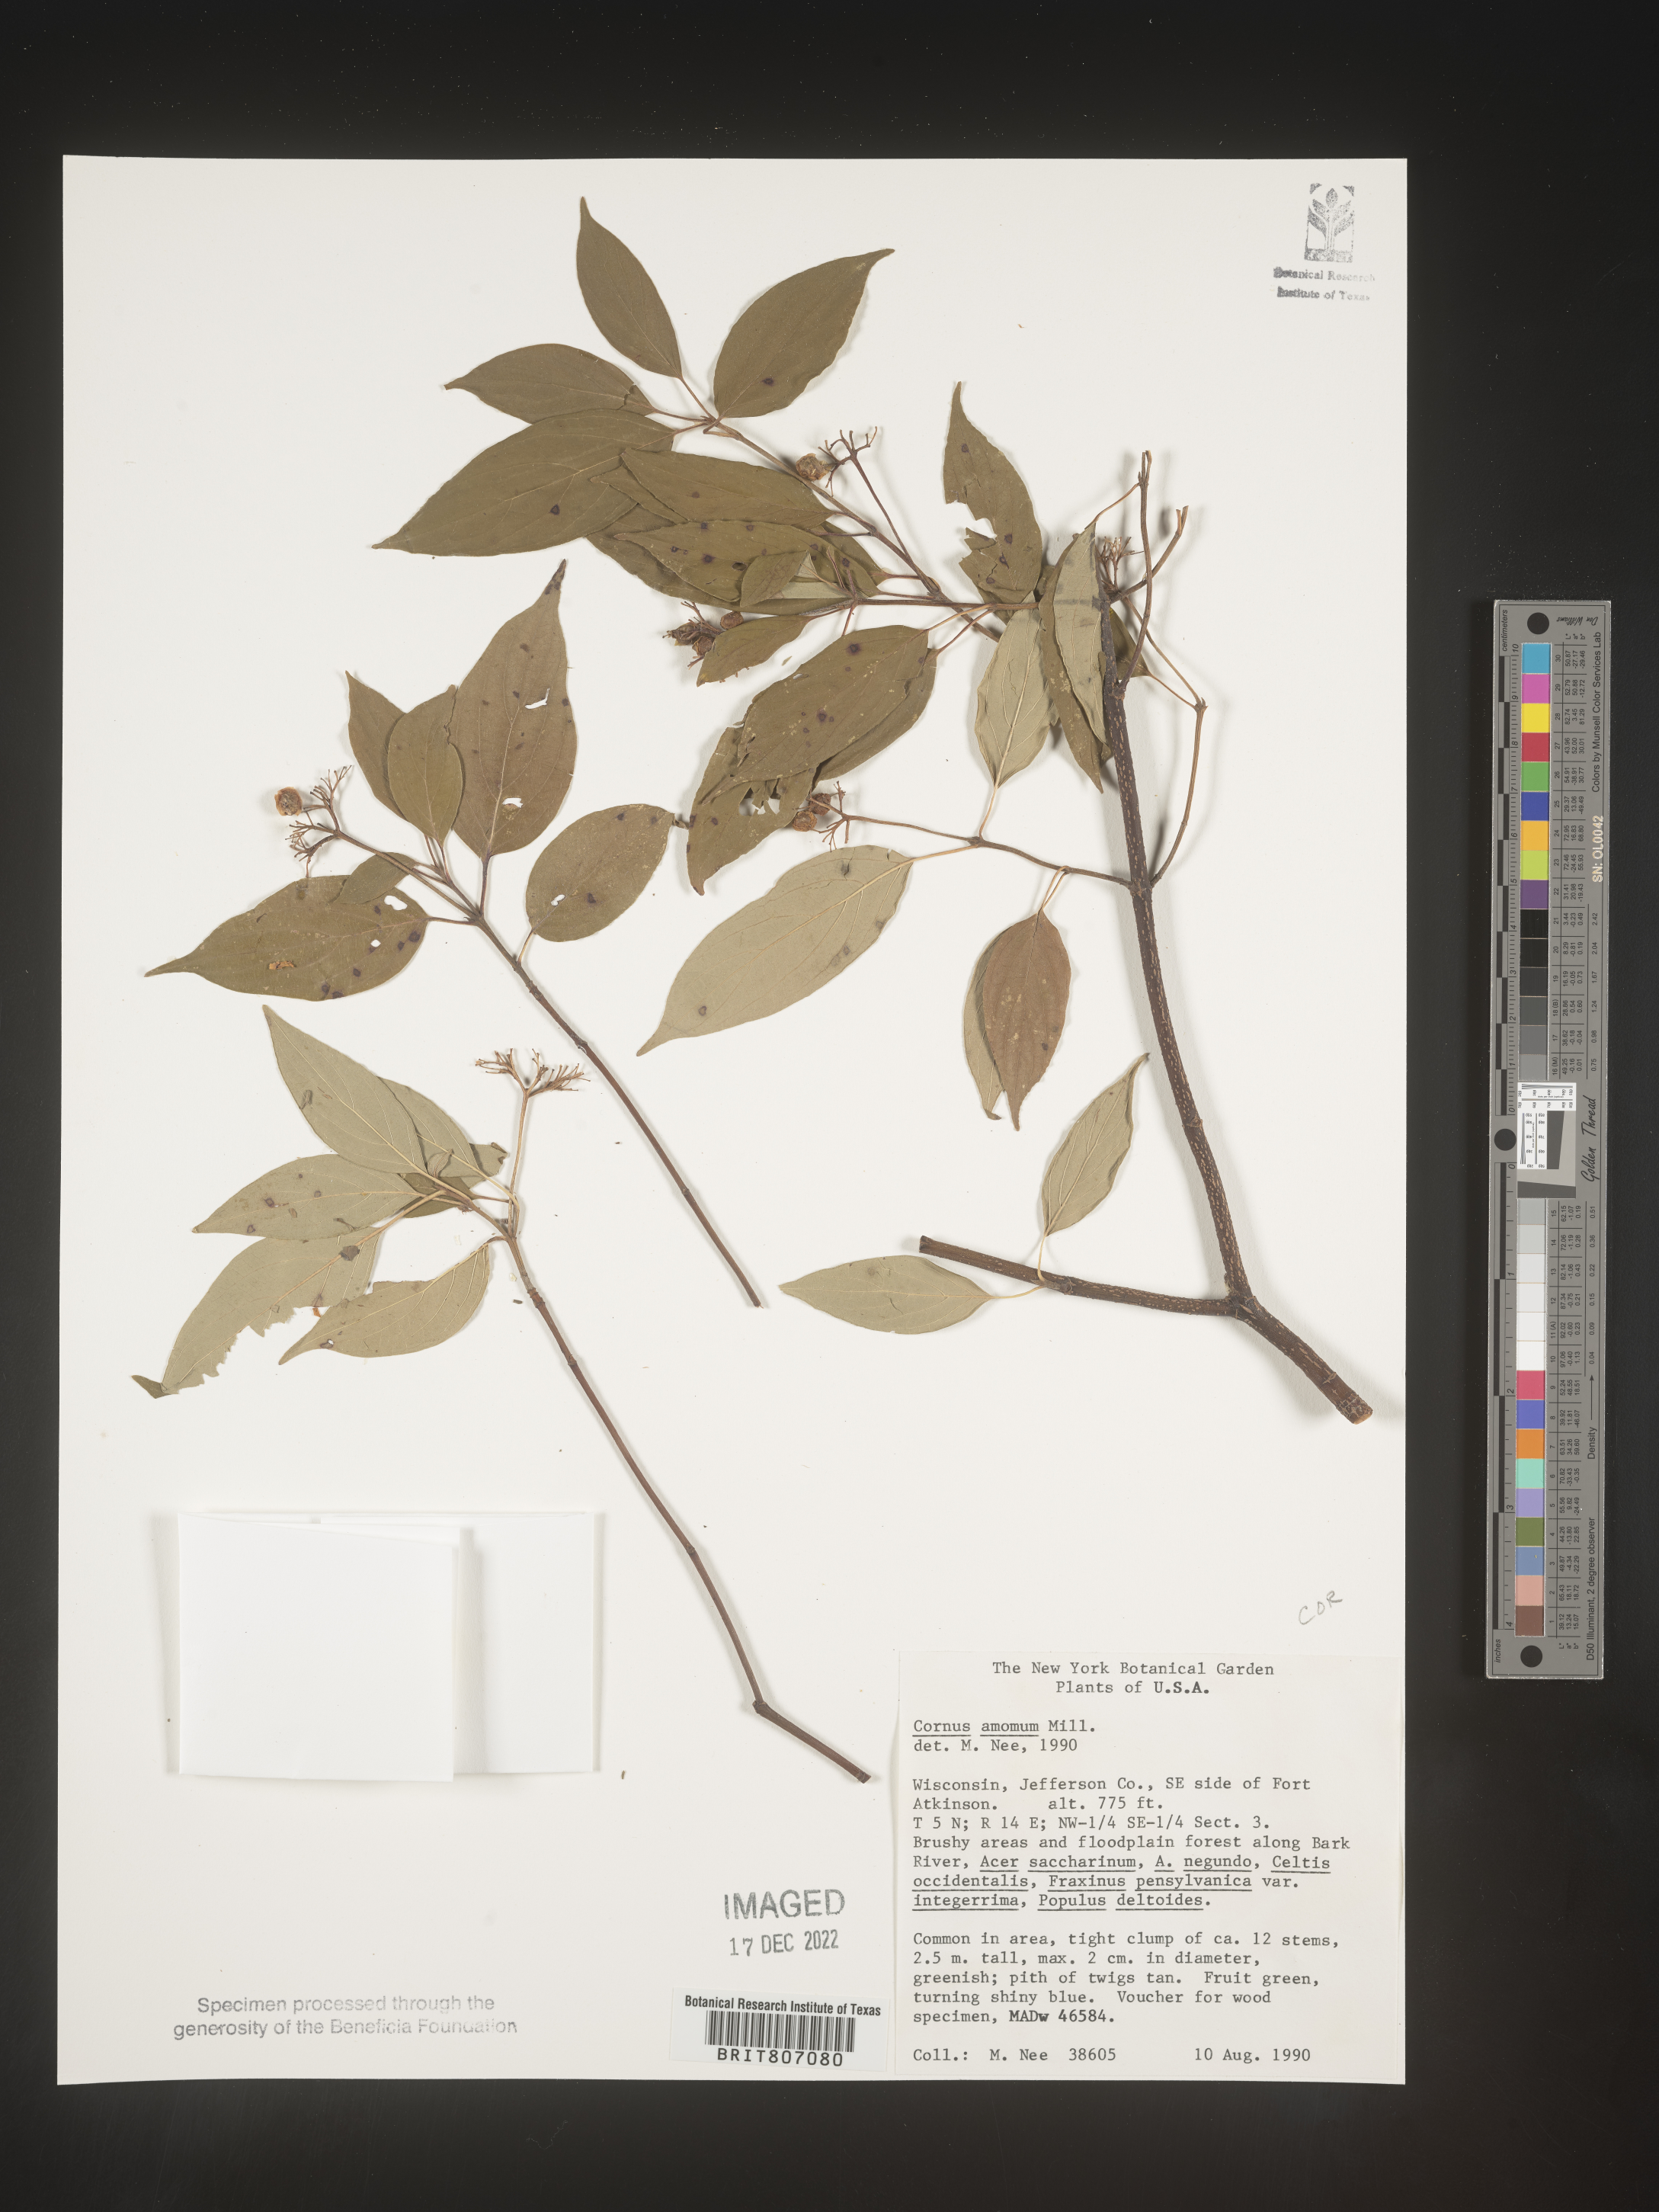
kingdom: Plantae
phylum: Tracheophyta
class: Magnoliopsida
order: Cornales
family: Cornaceae
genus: Cornus
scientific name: Cornus amomum
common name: Silky dogwood
